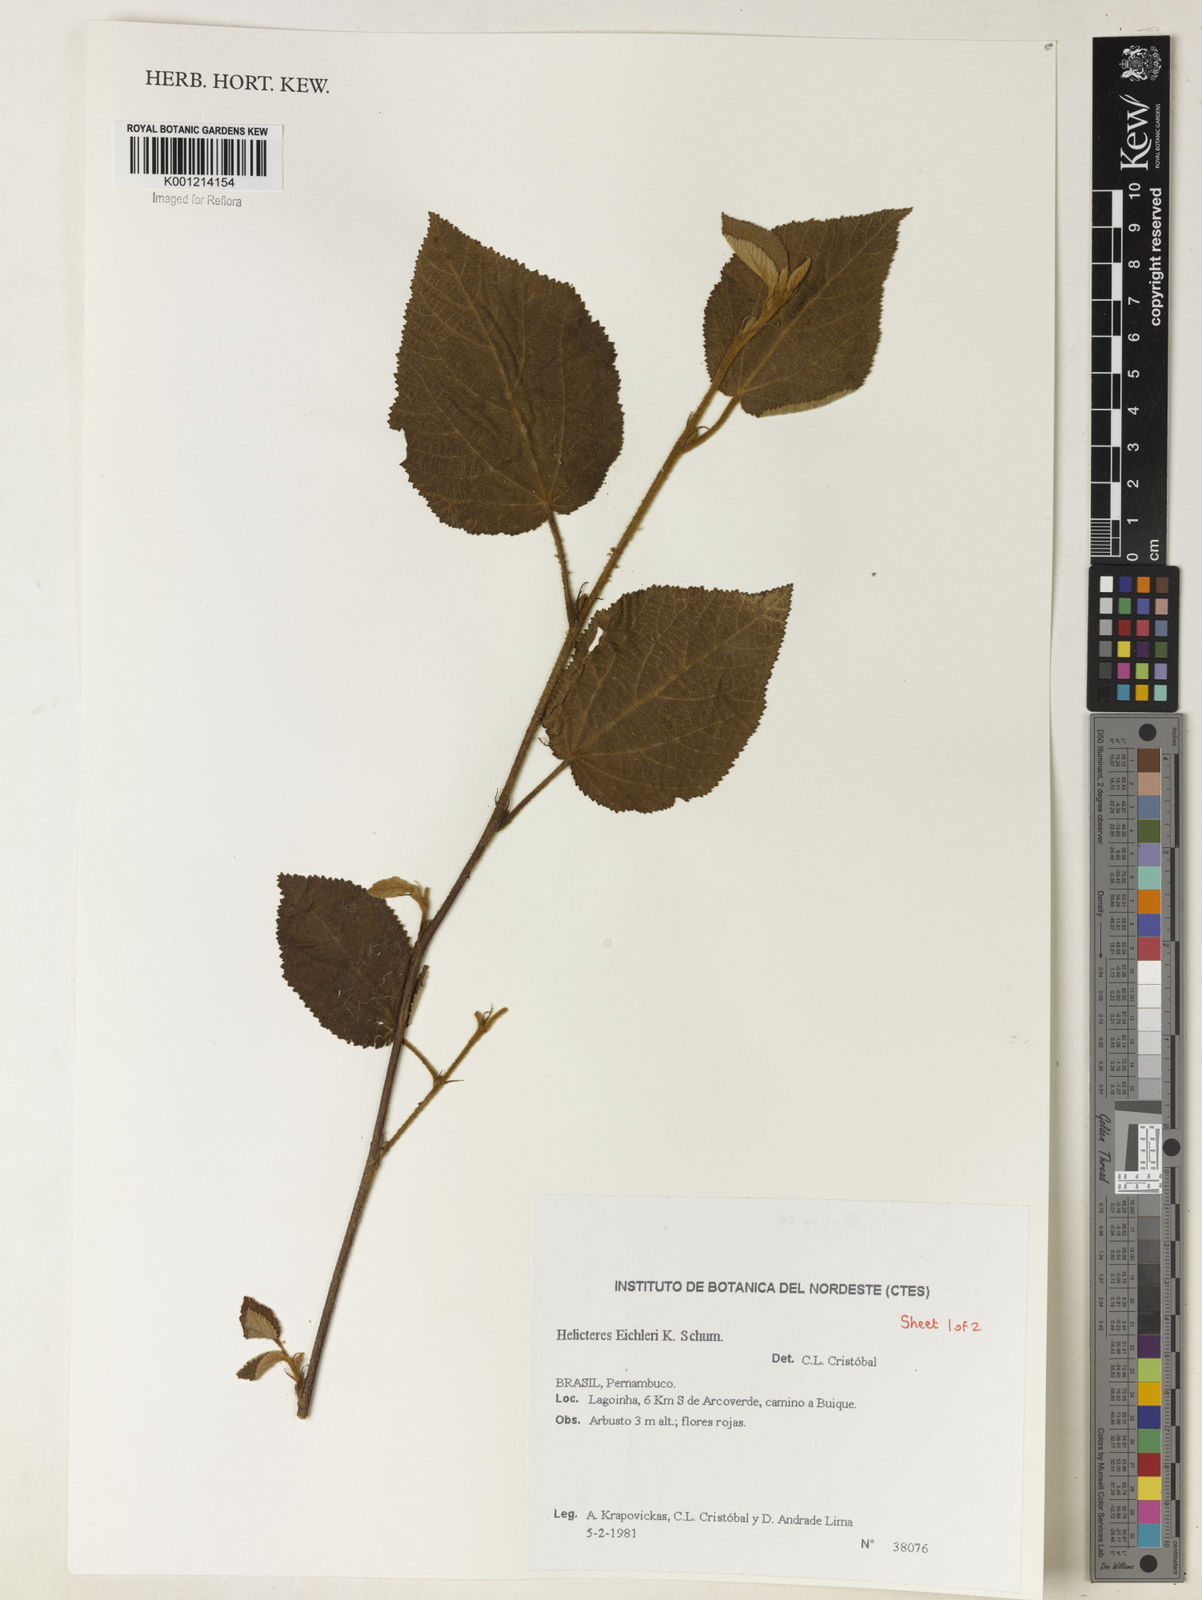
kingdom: Plantae
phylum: Tracheophyta
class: Magnoliopsida
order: Malvales
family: Malvaceae
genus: Helicteres
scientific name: Helicteres eichleri
